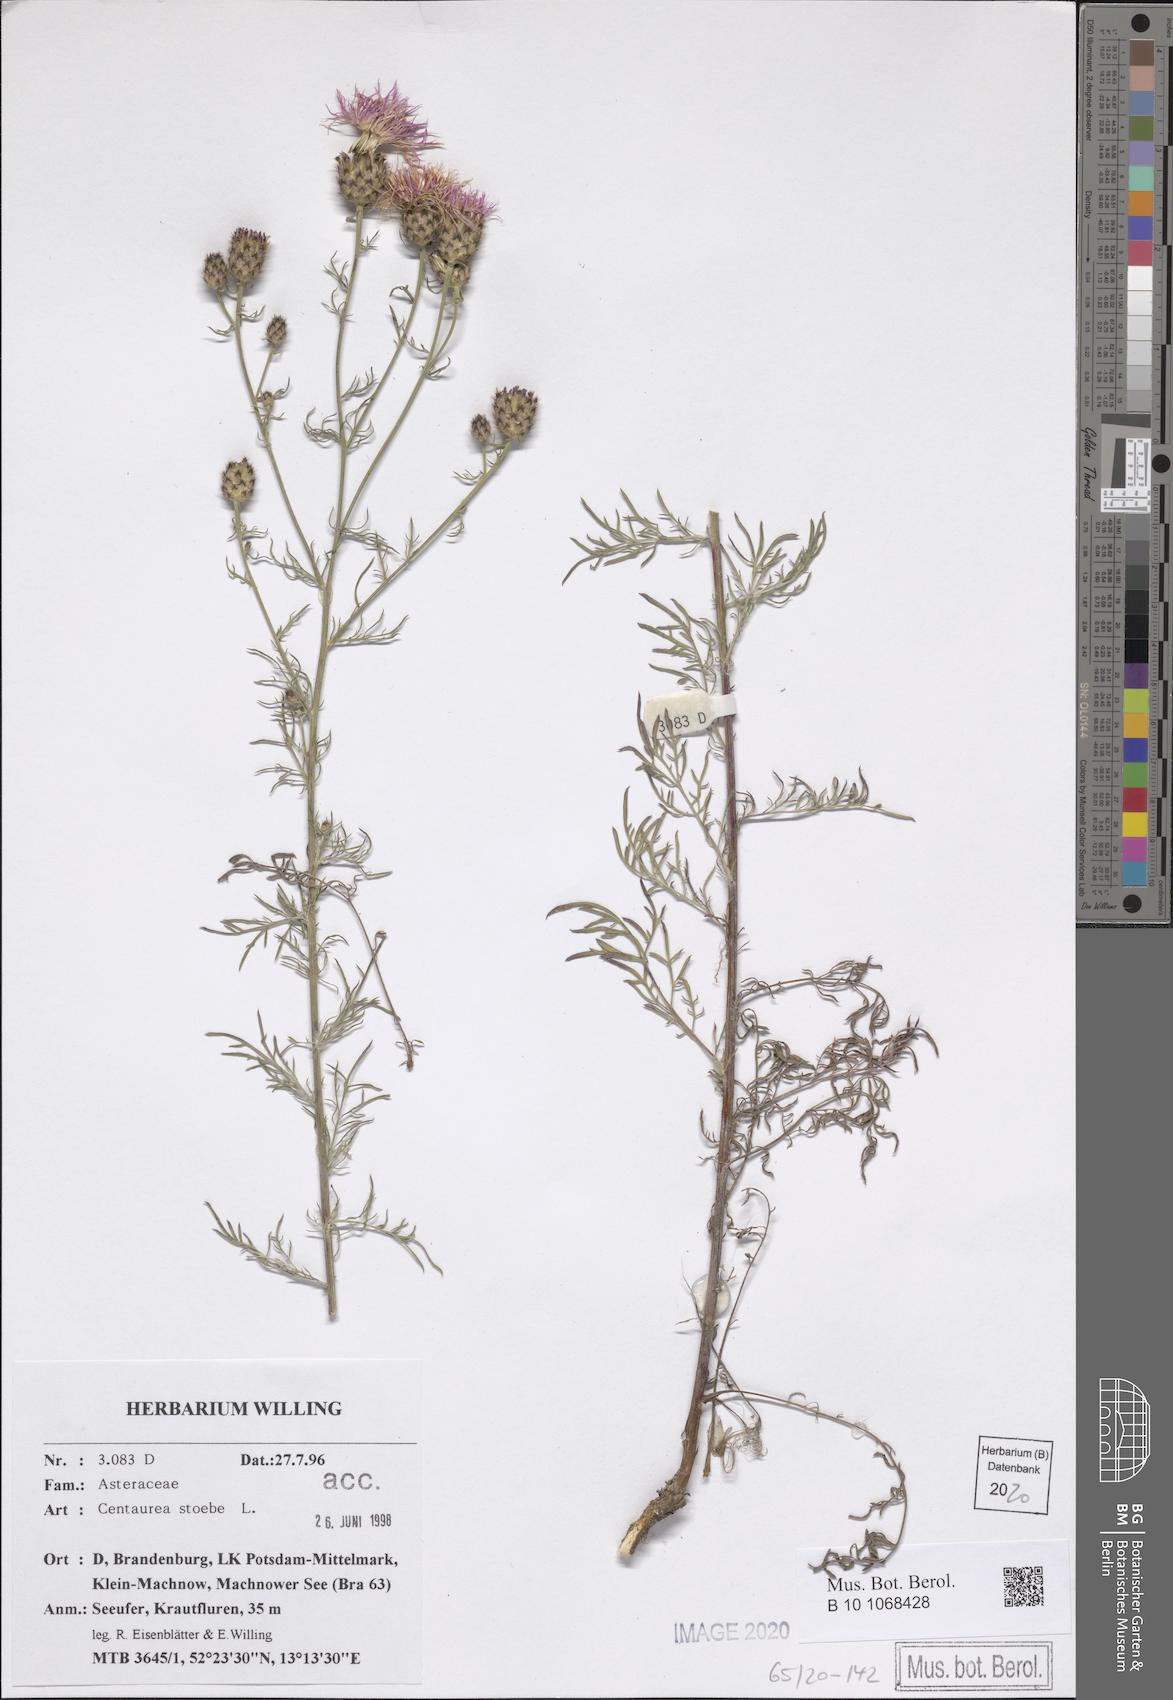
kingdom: Plantae
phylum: Tracheophyta
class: Magnoliopsida
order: Asterales
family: Asteraceae
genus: Centaurea
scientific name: Centaurea stoebe
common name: Spotted knapweed
